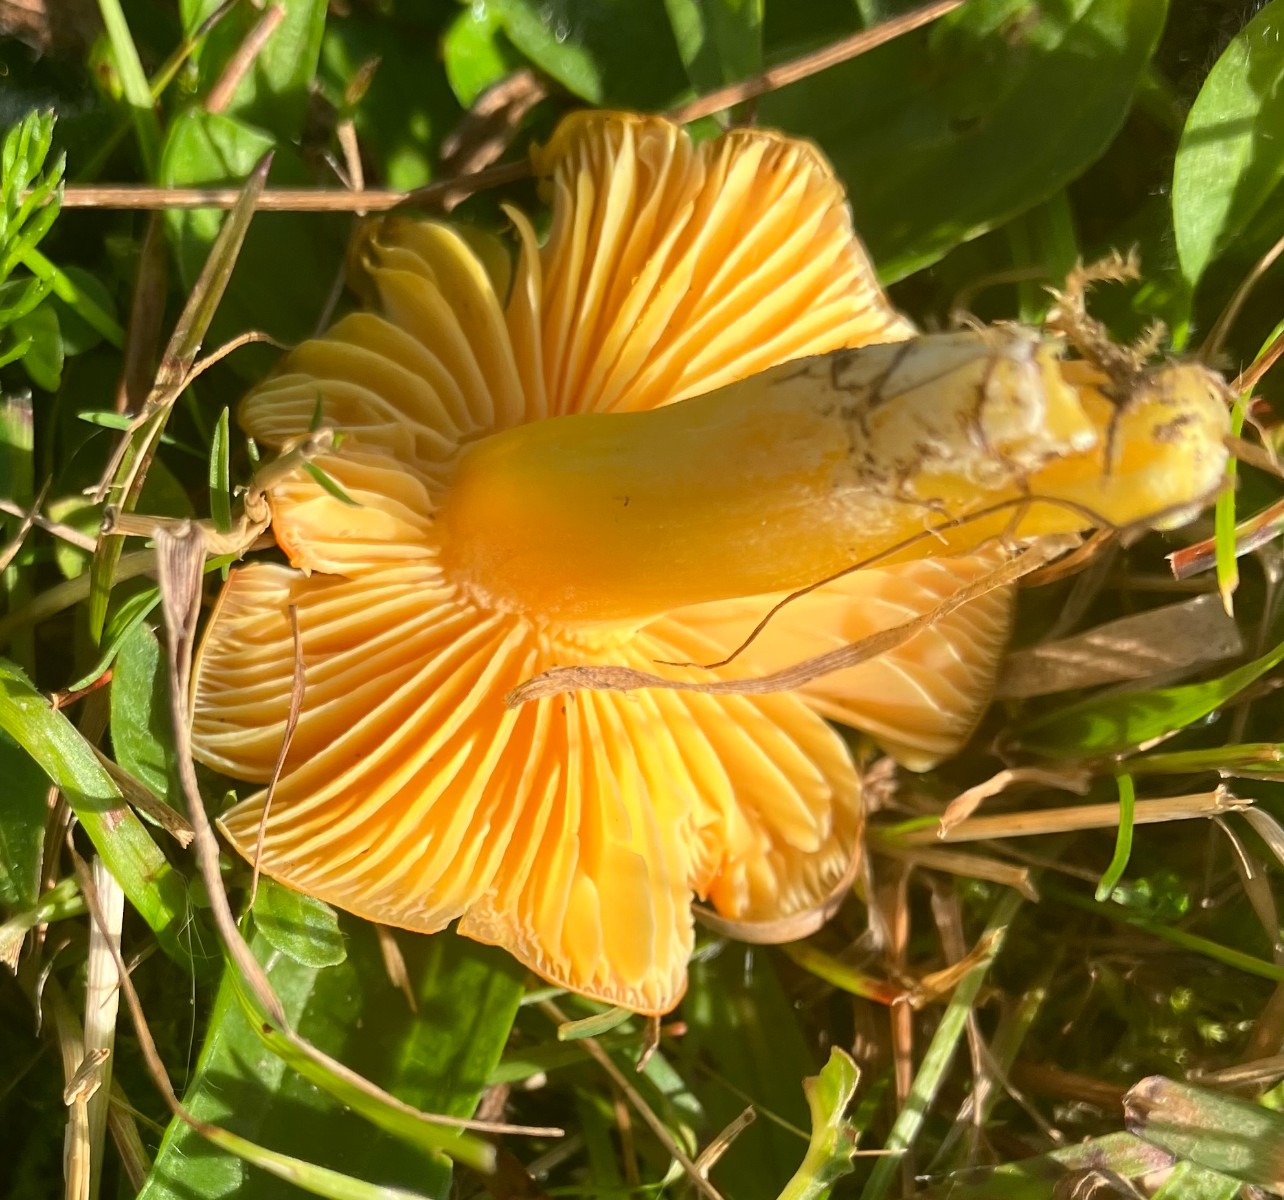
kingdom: Fungi
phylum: Basidiomycota
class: Agaricomycetes
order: Agaricales
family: Hygrophoraceae
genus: Hygrocybe
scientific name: Hygrocybe
